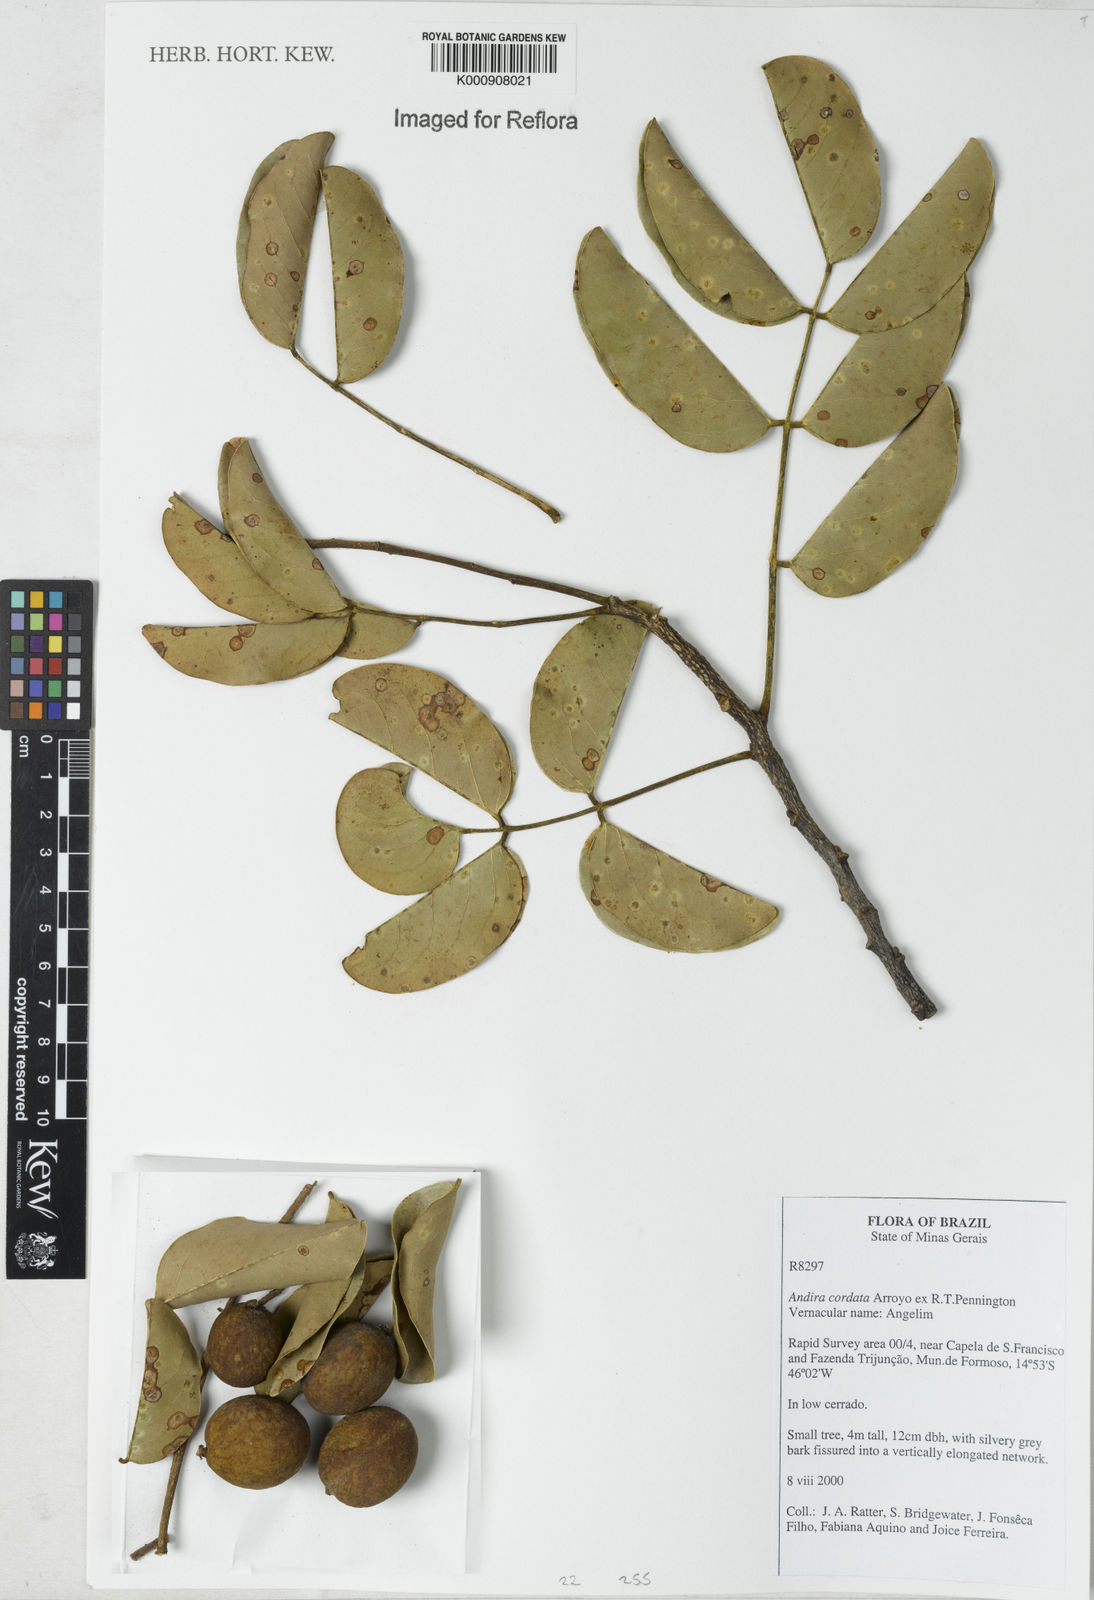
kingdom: Plantae
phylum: Tracheophyta
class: Magnoliopsida
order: Fabales
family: Fabaceae
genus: Andira
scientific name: Andira cordata
